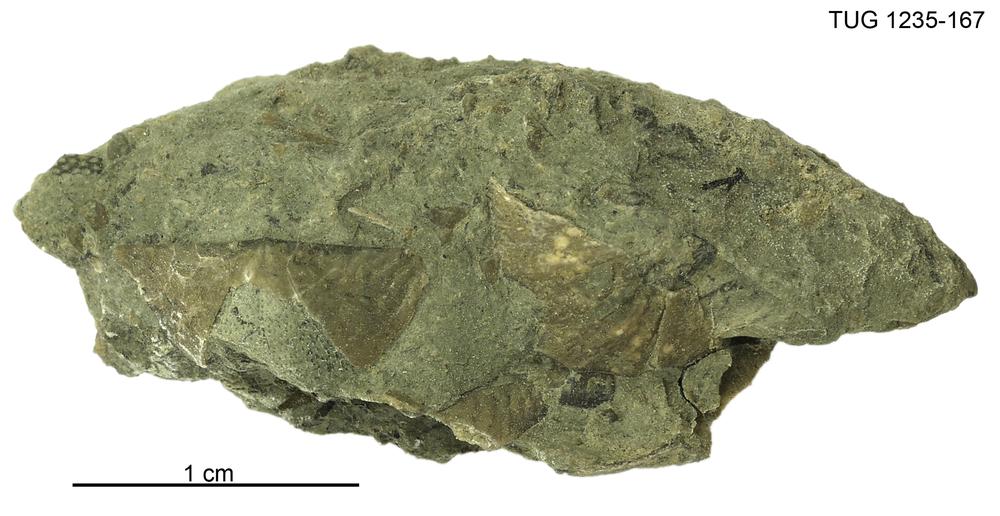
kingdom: Animalia
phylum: Brachiopoda
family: Oldhaminidae
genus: Eoplectodonta
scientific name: Eoplectodonta
